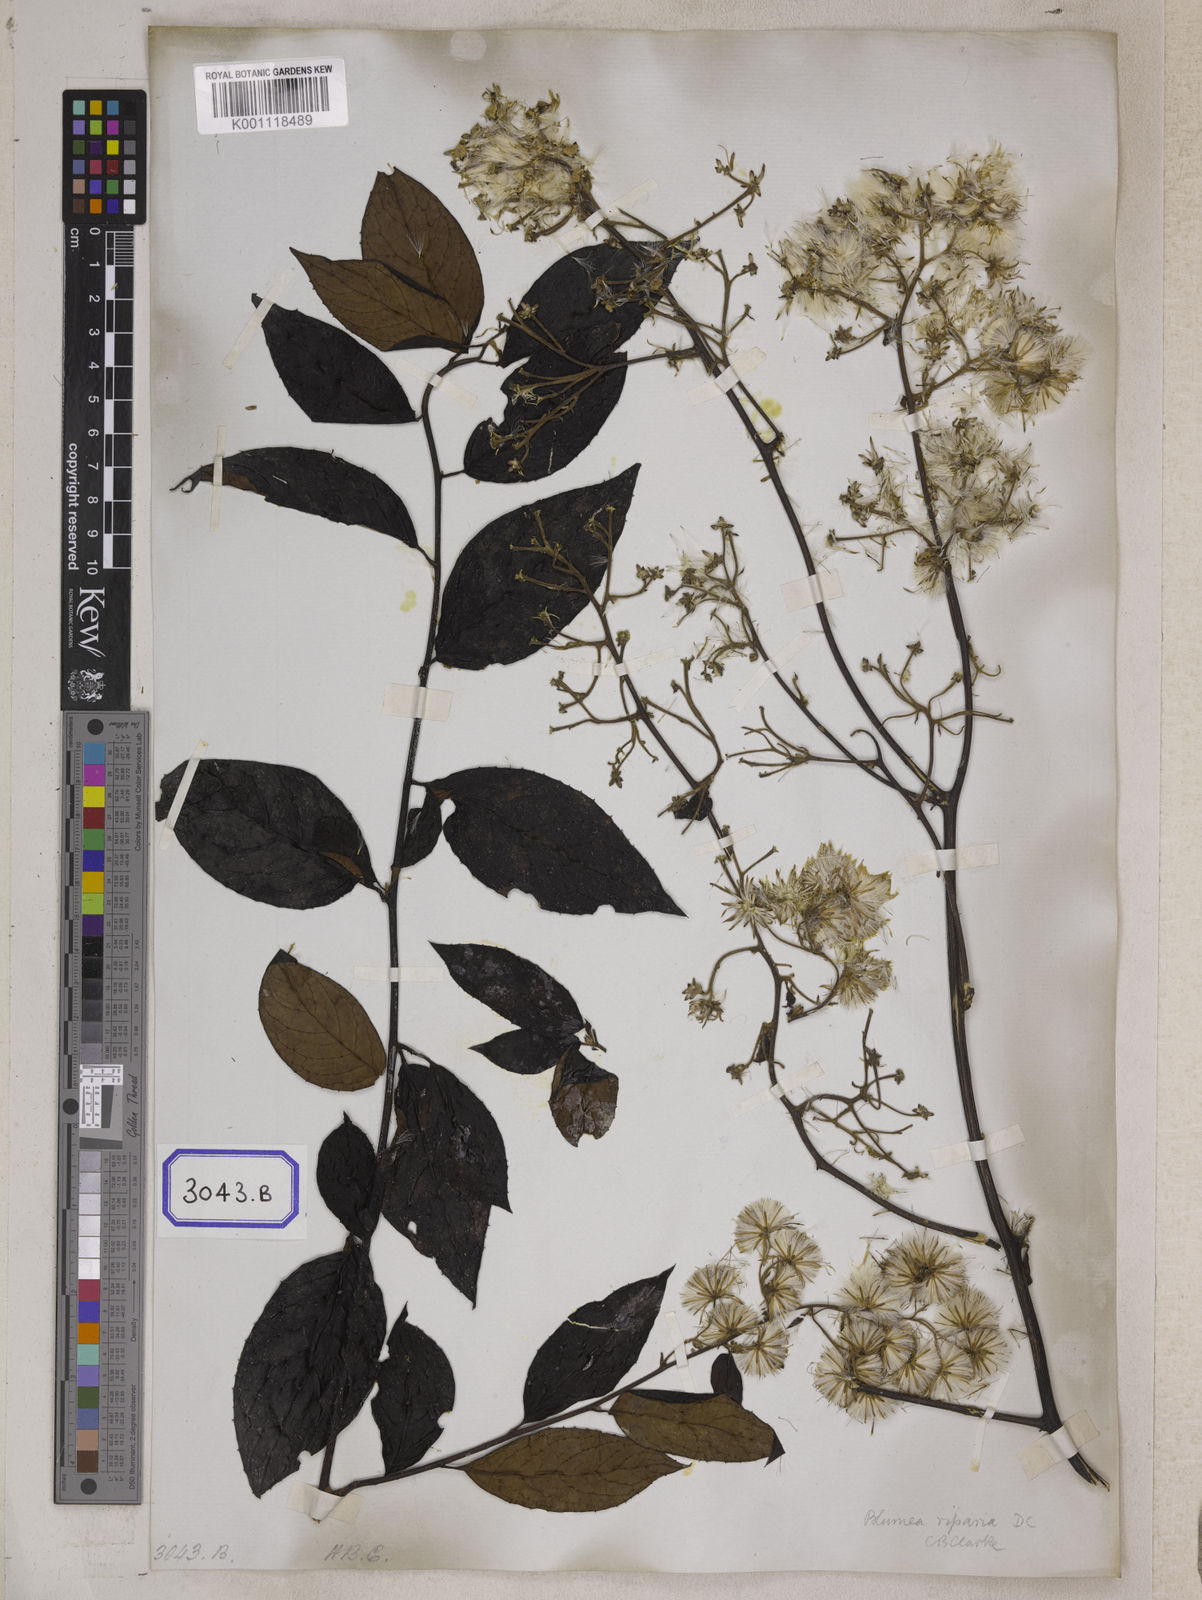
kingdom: Plantae
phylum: Tracheophyta
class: Magnoliopsida
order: Asterales
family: Asteraceae
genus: Blumea
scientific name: Blumea riparia
